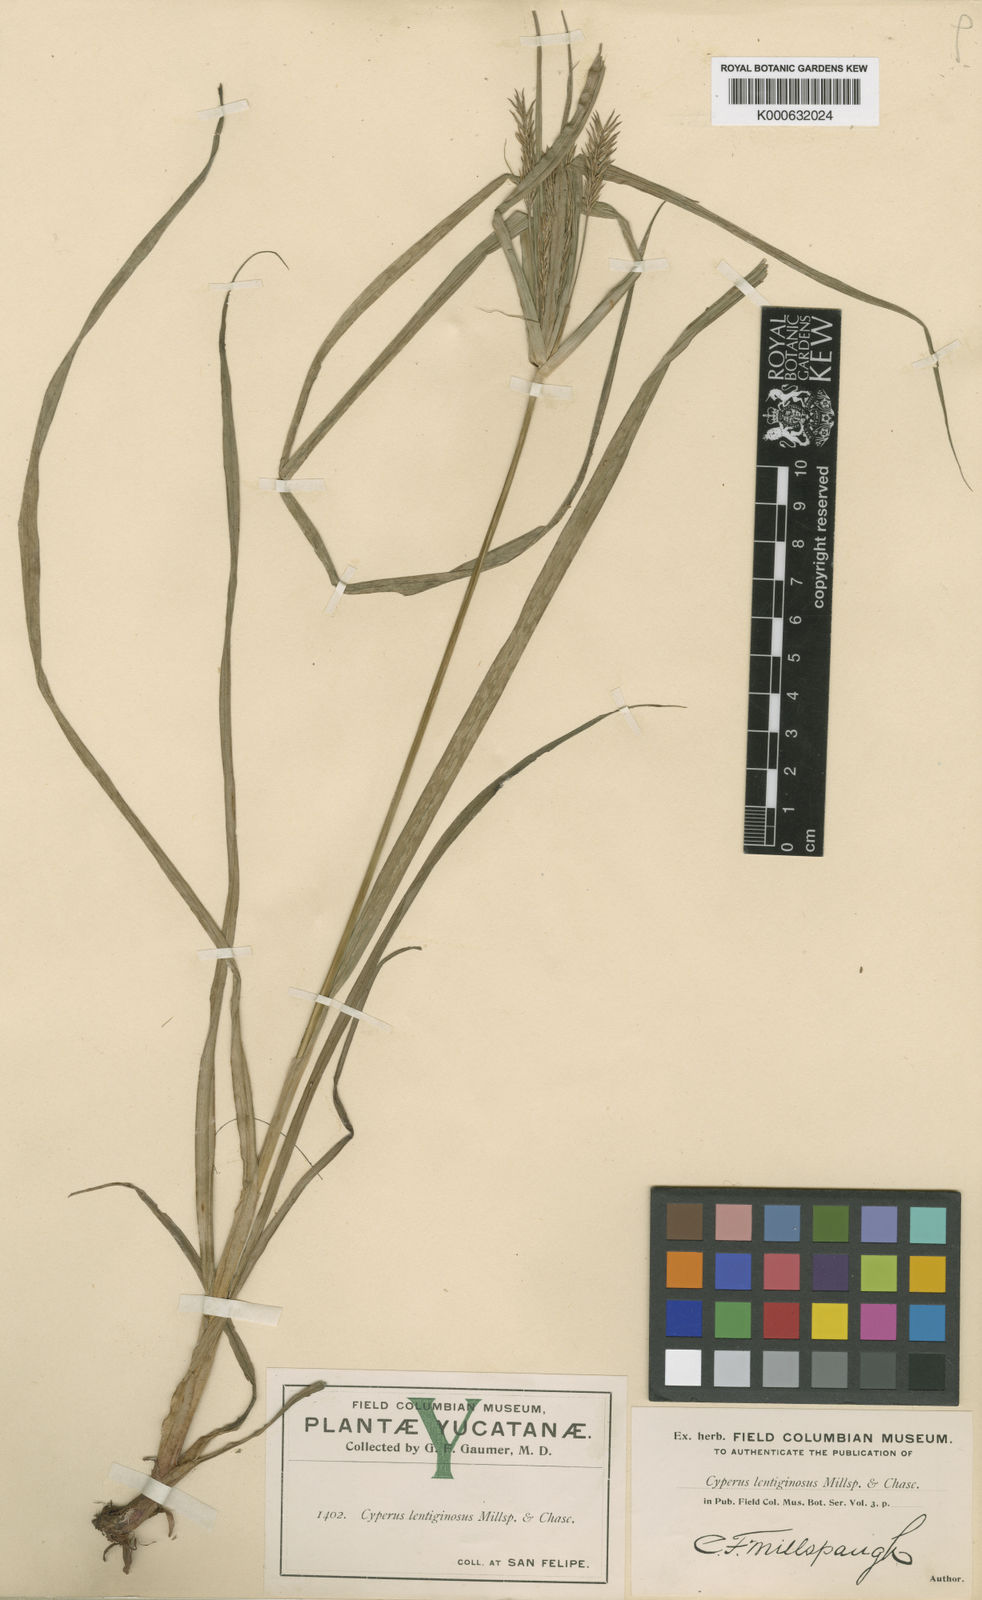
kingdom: Plantae
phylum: Tracheophyta
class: Liliopsida
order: Poales
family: Cyperaceae
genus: Cyperus
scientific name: Cyperus tenuis
